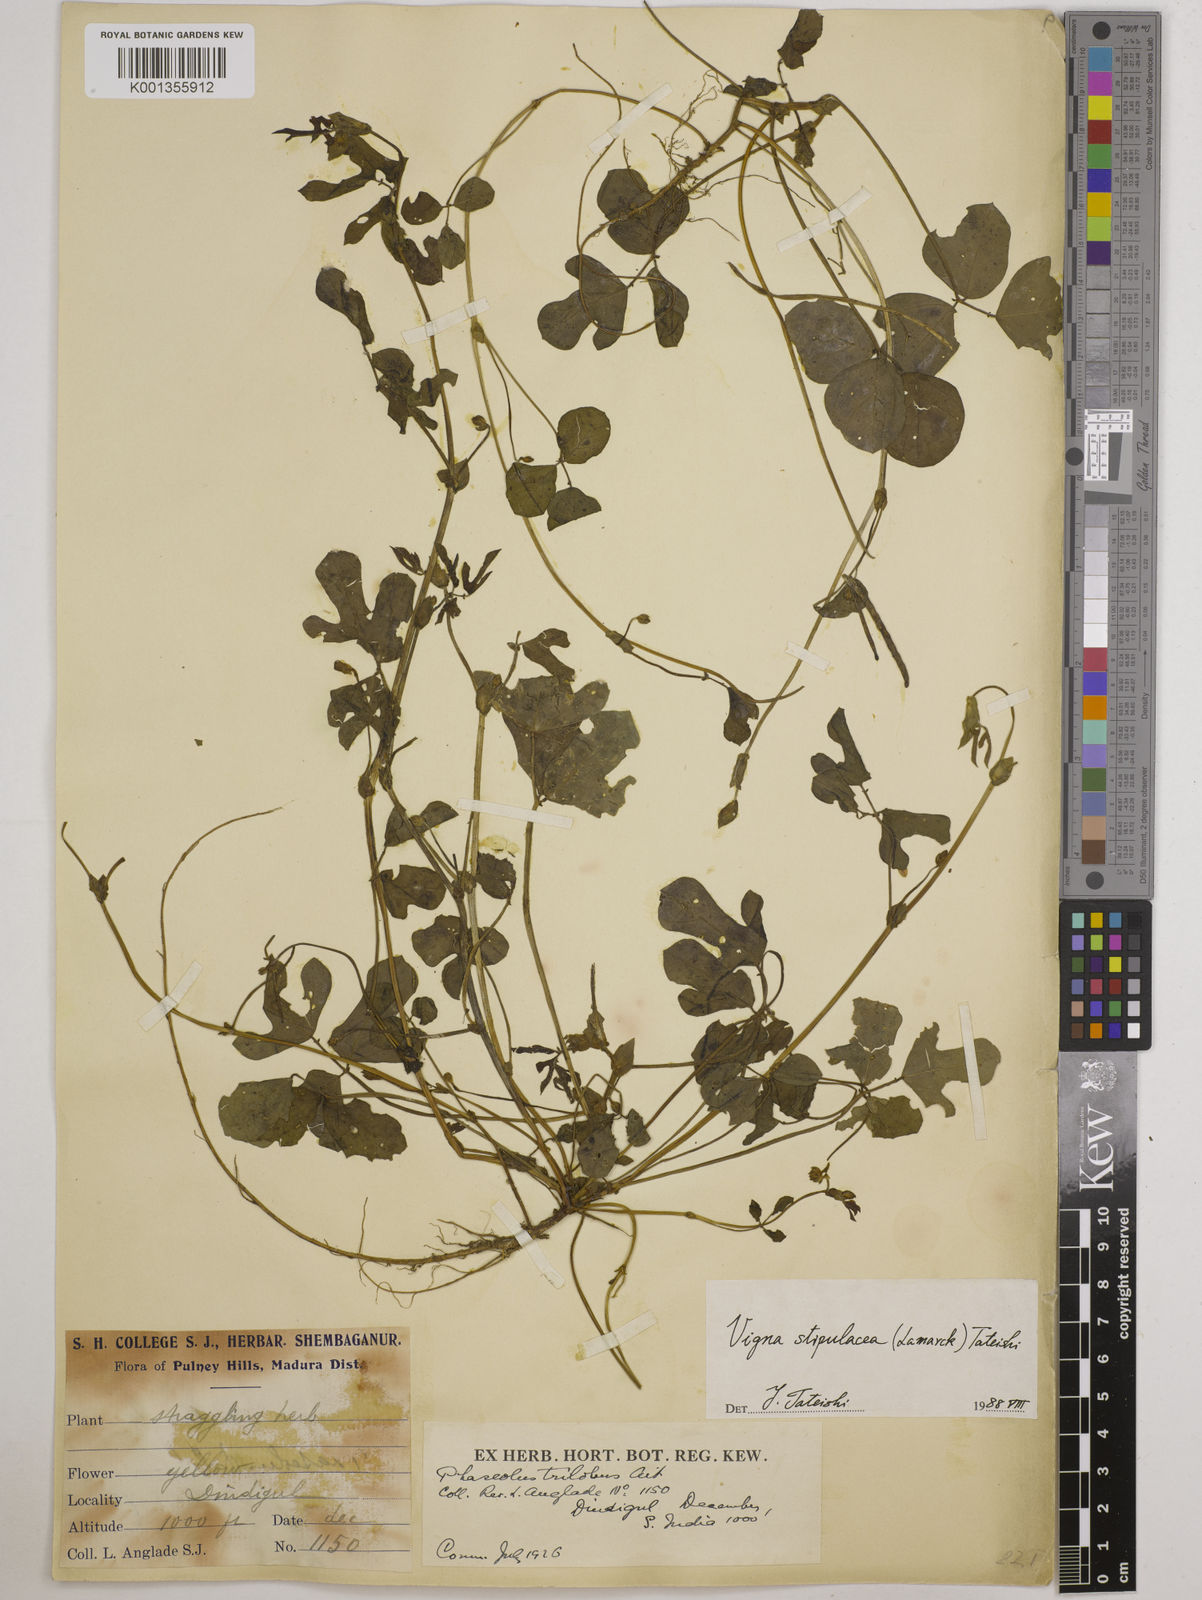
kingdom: Plantae
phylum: Tracheophyta
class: Magnoliopsida
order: Fabales
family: Fabaceae
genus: Pueraria
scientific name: Pueraria montana
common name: Kudzu
